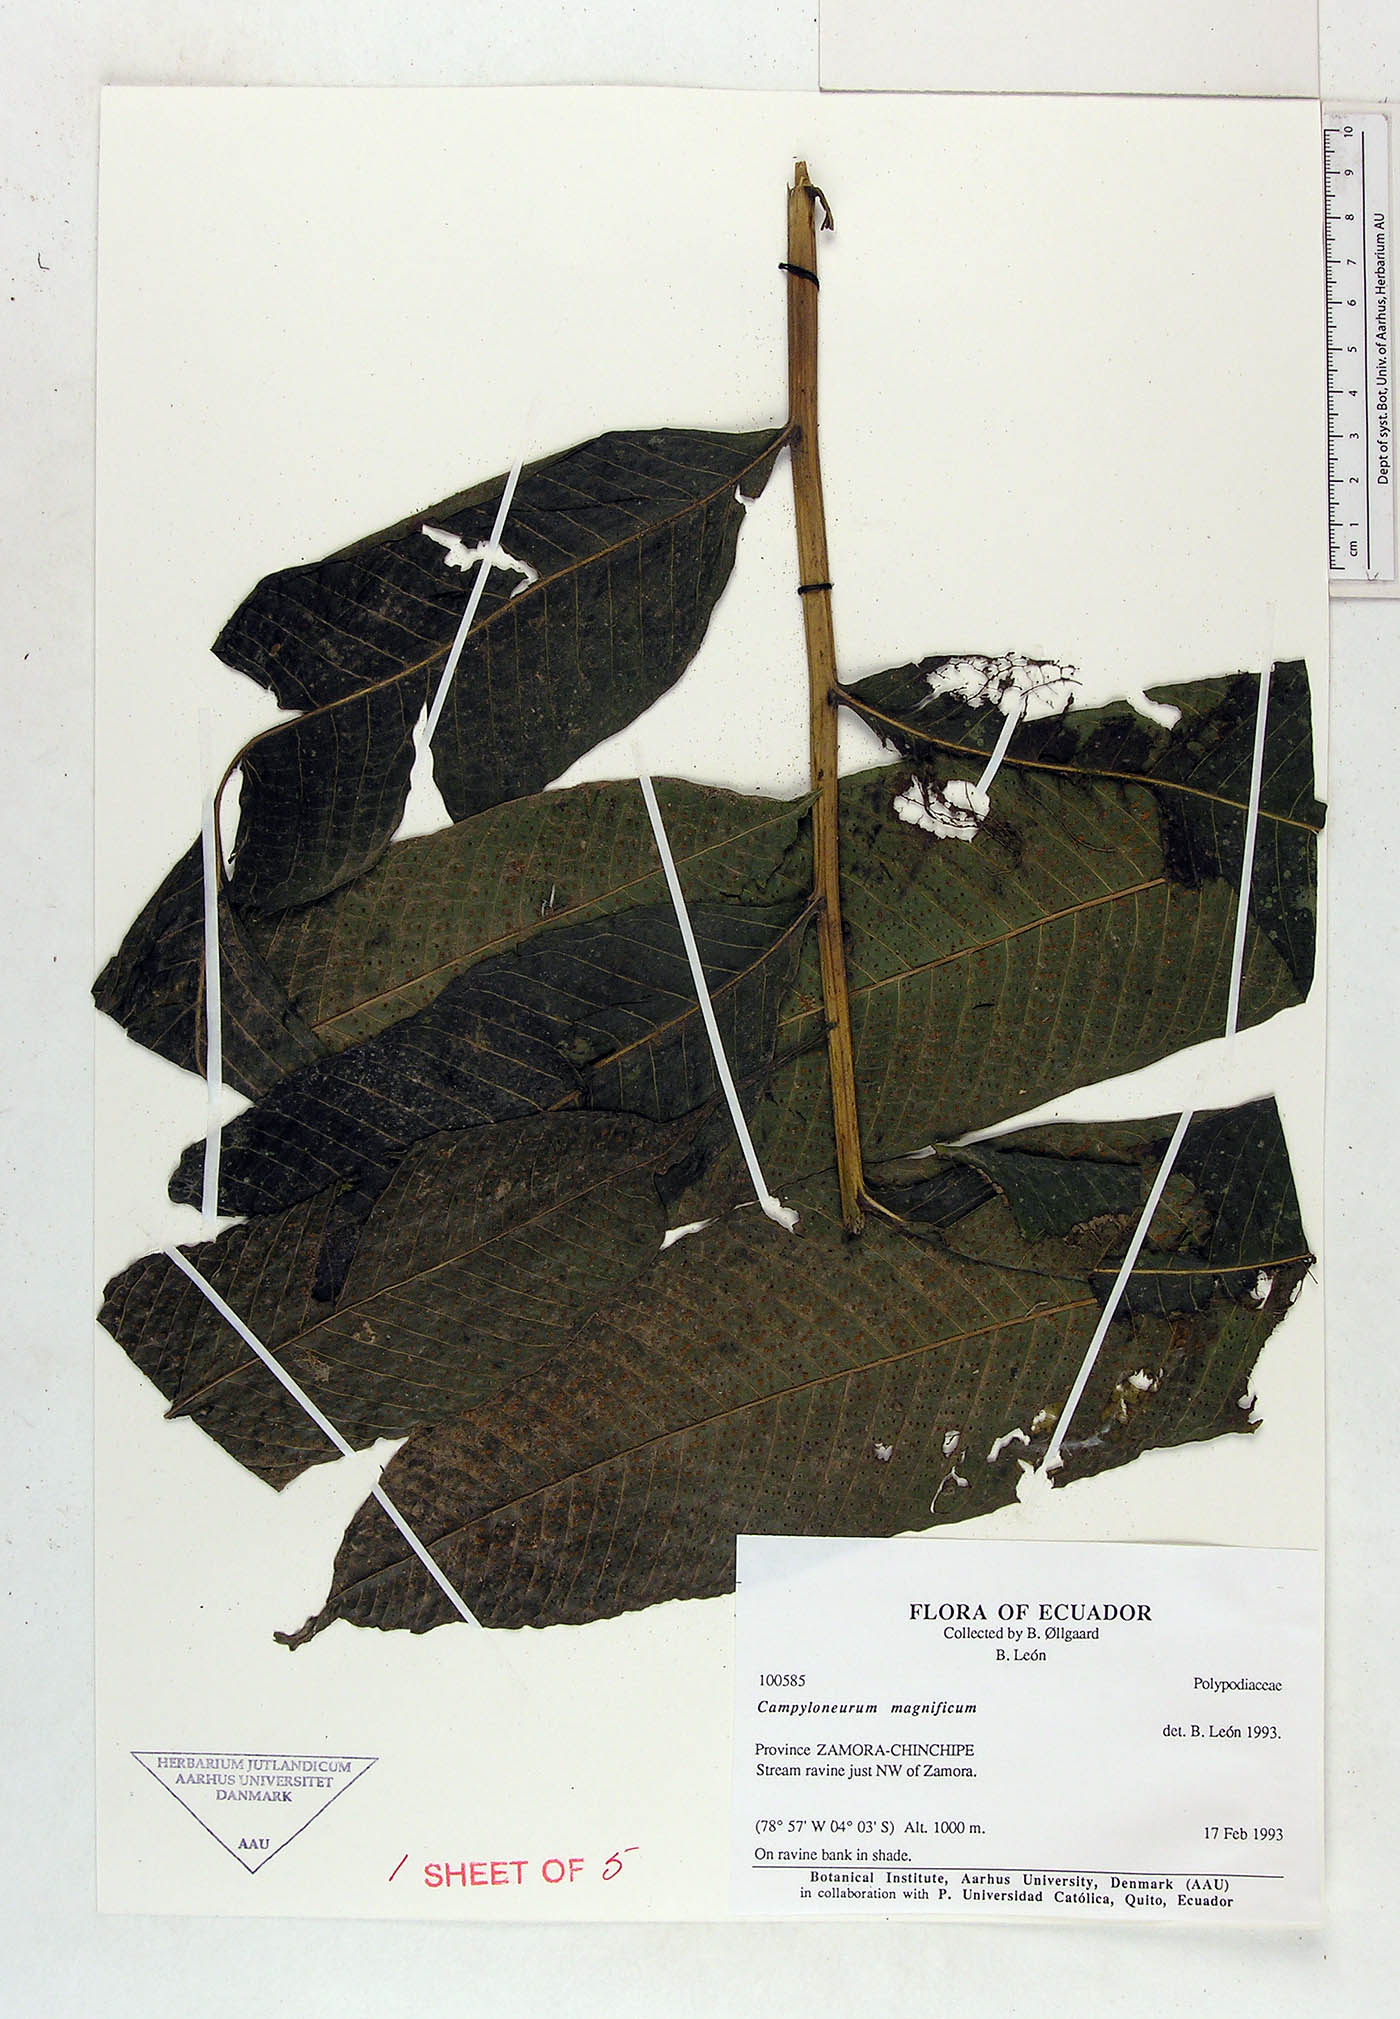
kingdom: Plantae
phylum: Tracheophyta
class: Polypodiopsida
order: Polypodiales
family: Polypodiaceae
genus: Campyloneurum
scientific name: Campyloneurum magnificum
